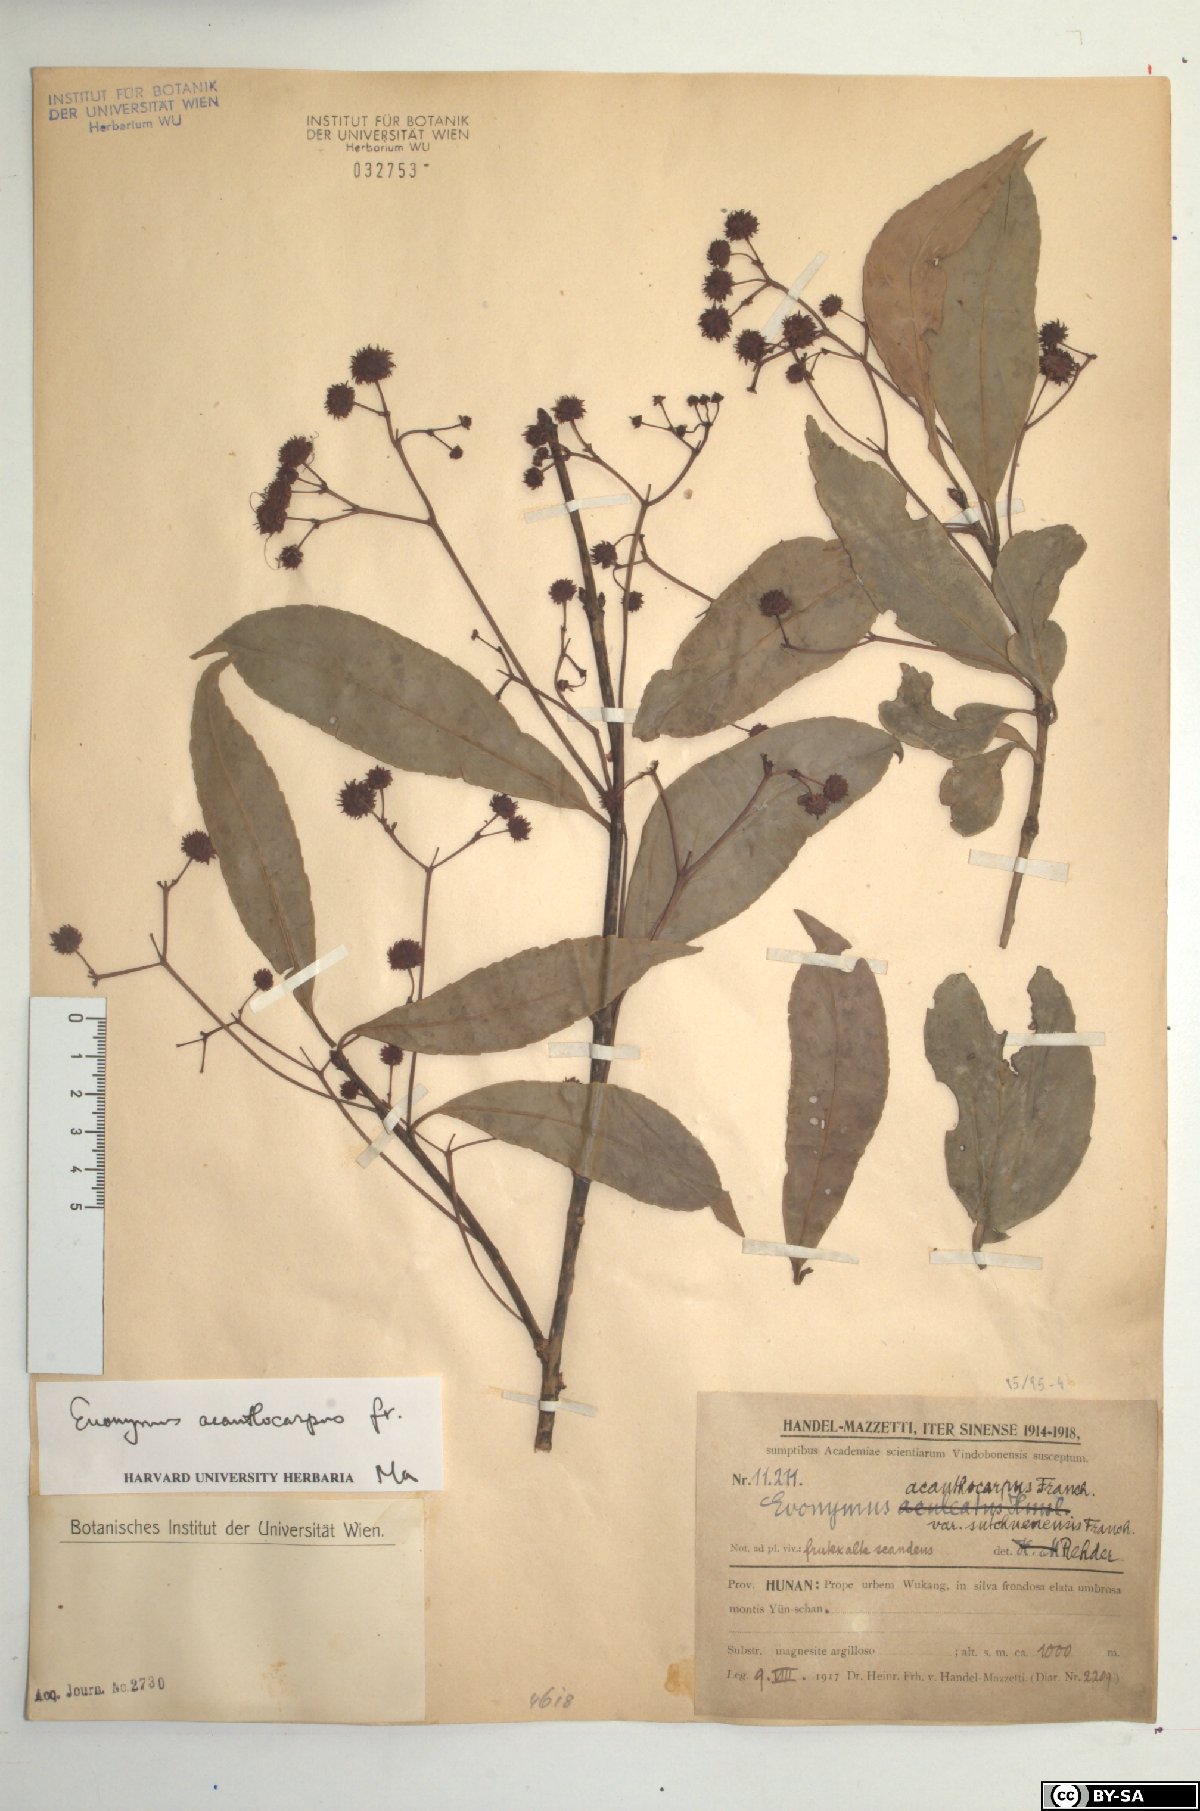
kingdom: Plantae
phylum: Tracheophyta
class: Magnoliopsida
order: Celastrales
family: Celastraceae
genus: Euonymus
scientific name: Euonymus acanthocarpus
